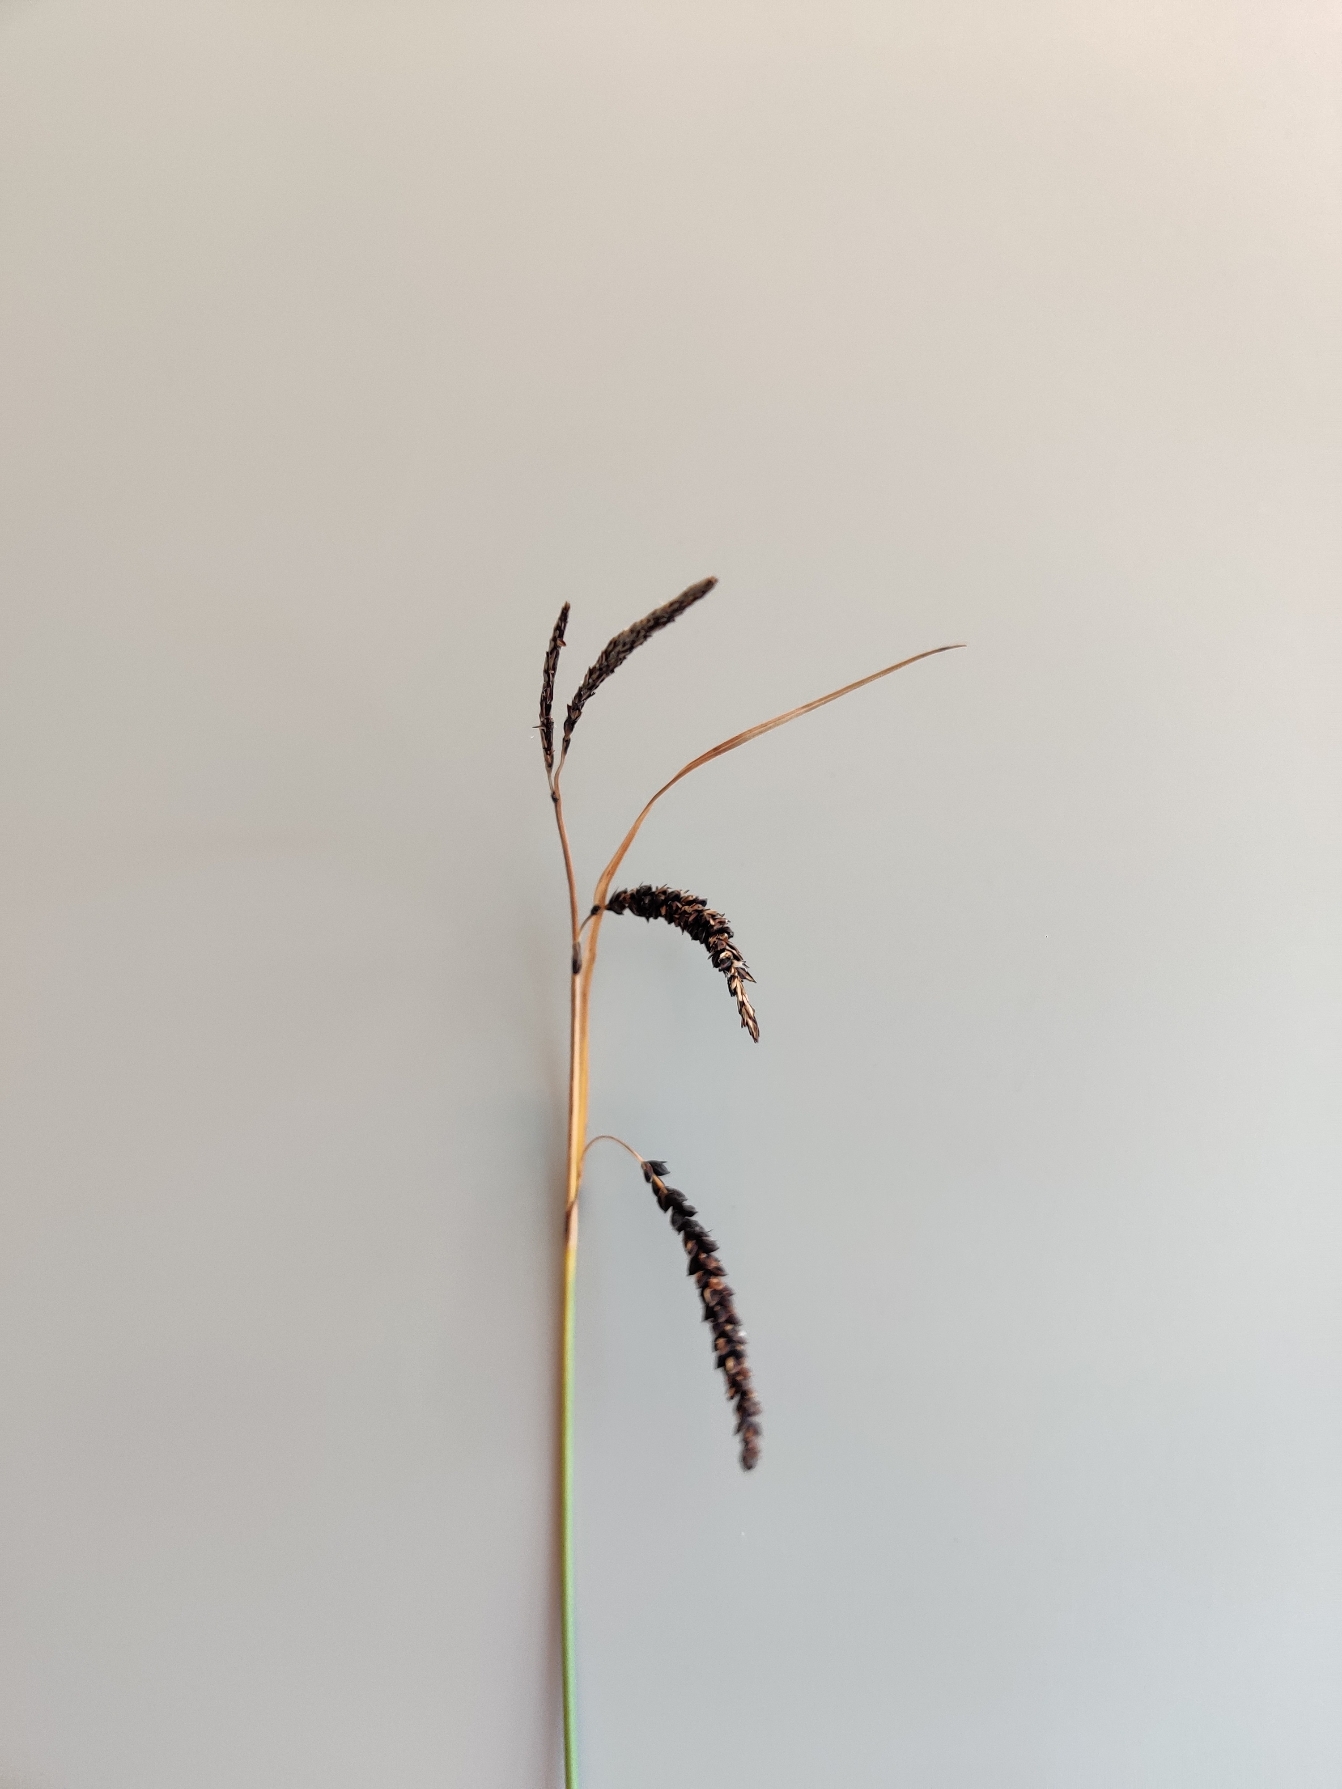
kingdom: Plantae
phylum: Tracheophyta
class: Liliopsida
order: Poales
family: Cyperaceae
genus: Carex
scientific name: Carex flacca
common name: Blågrøn star
